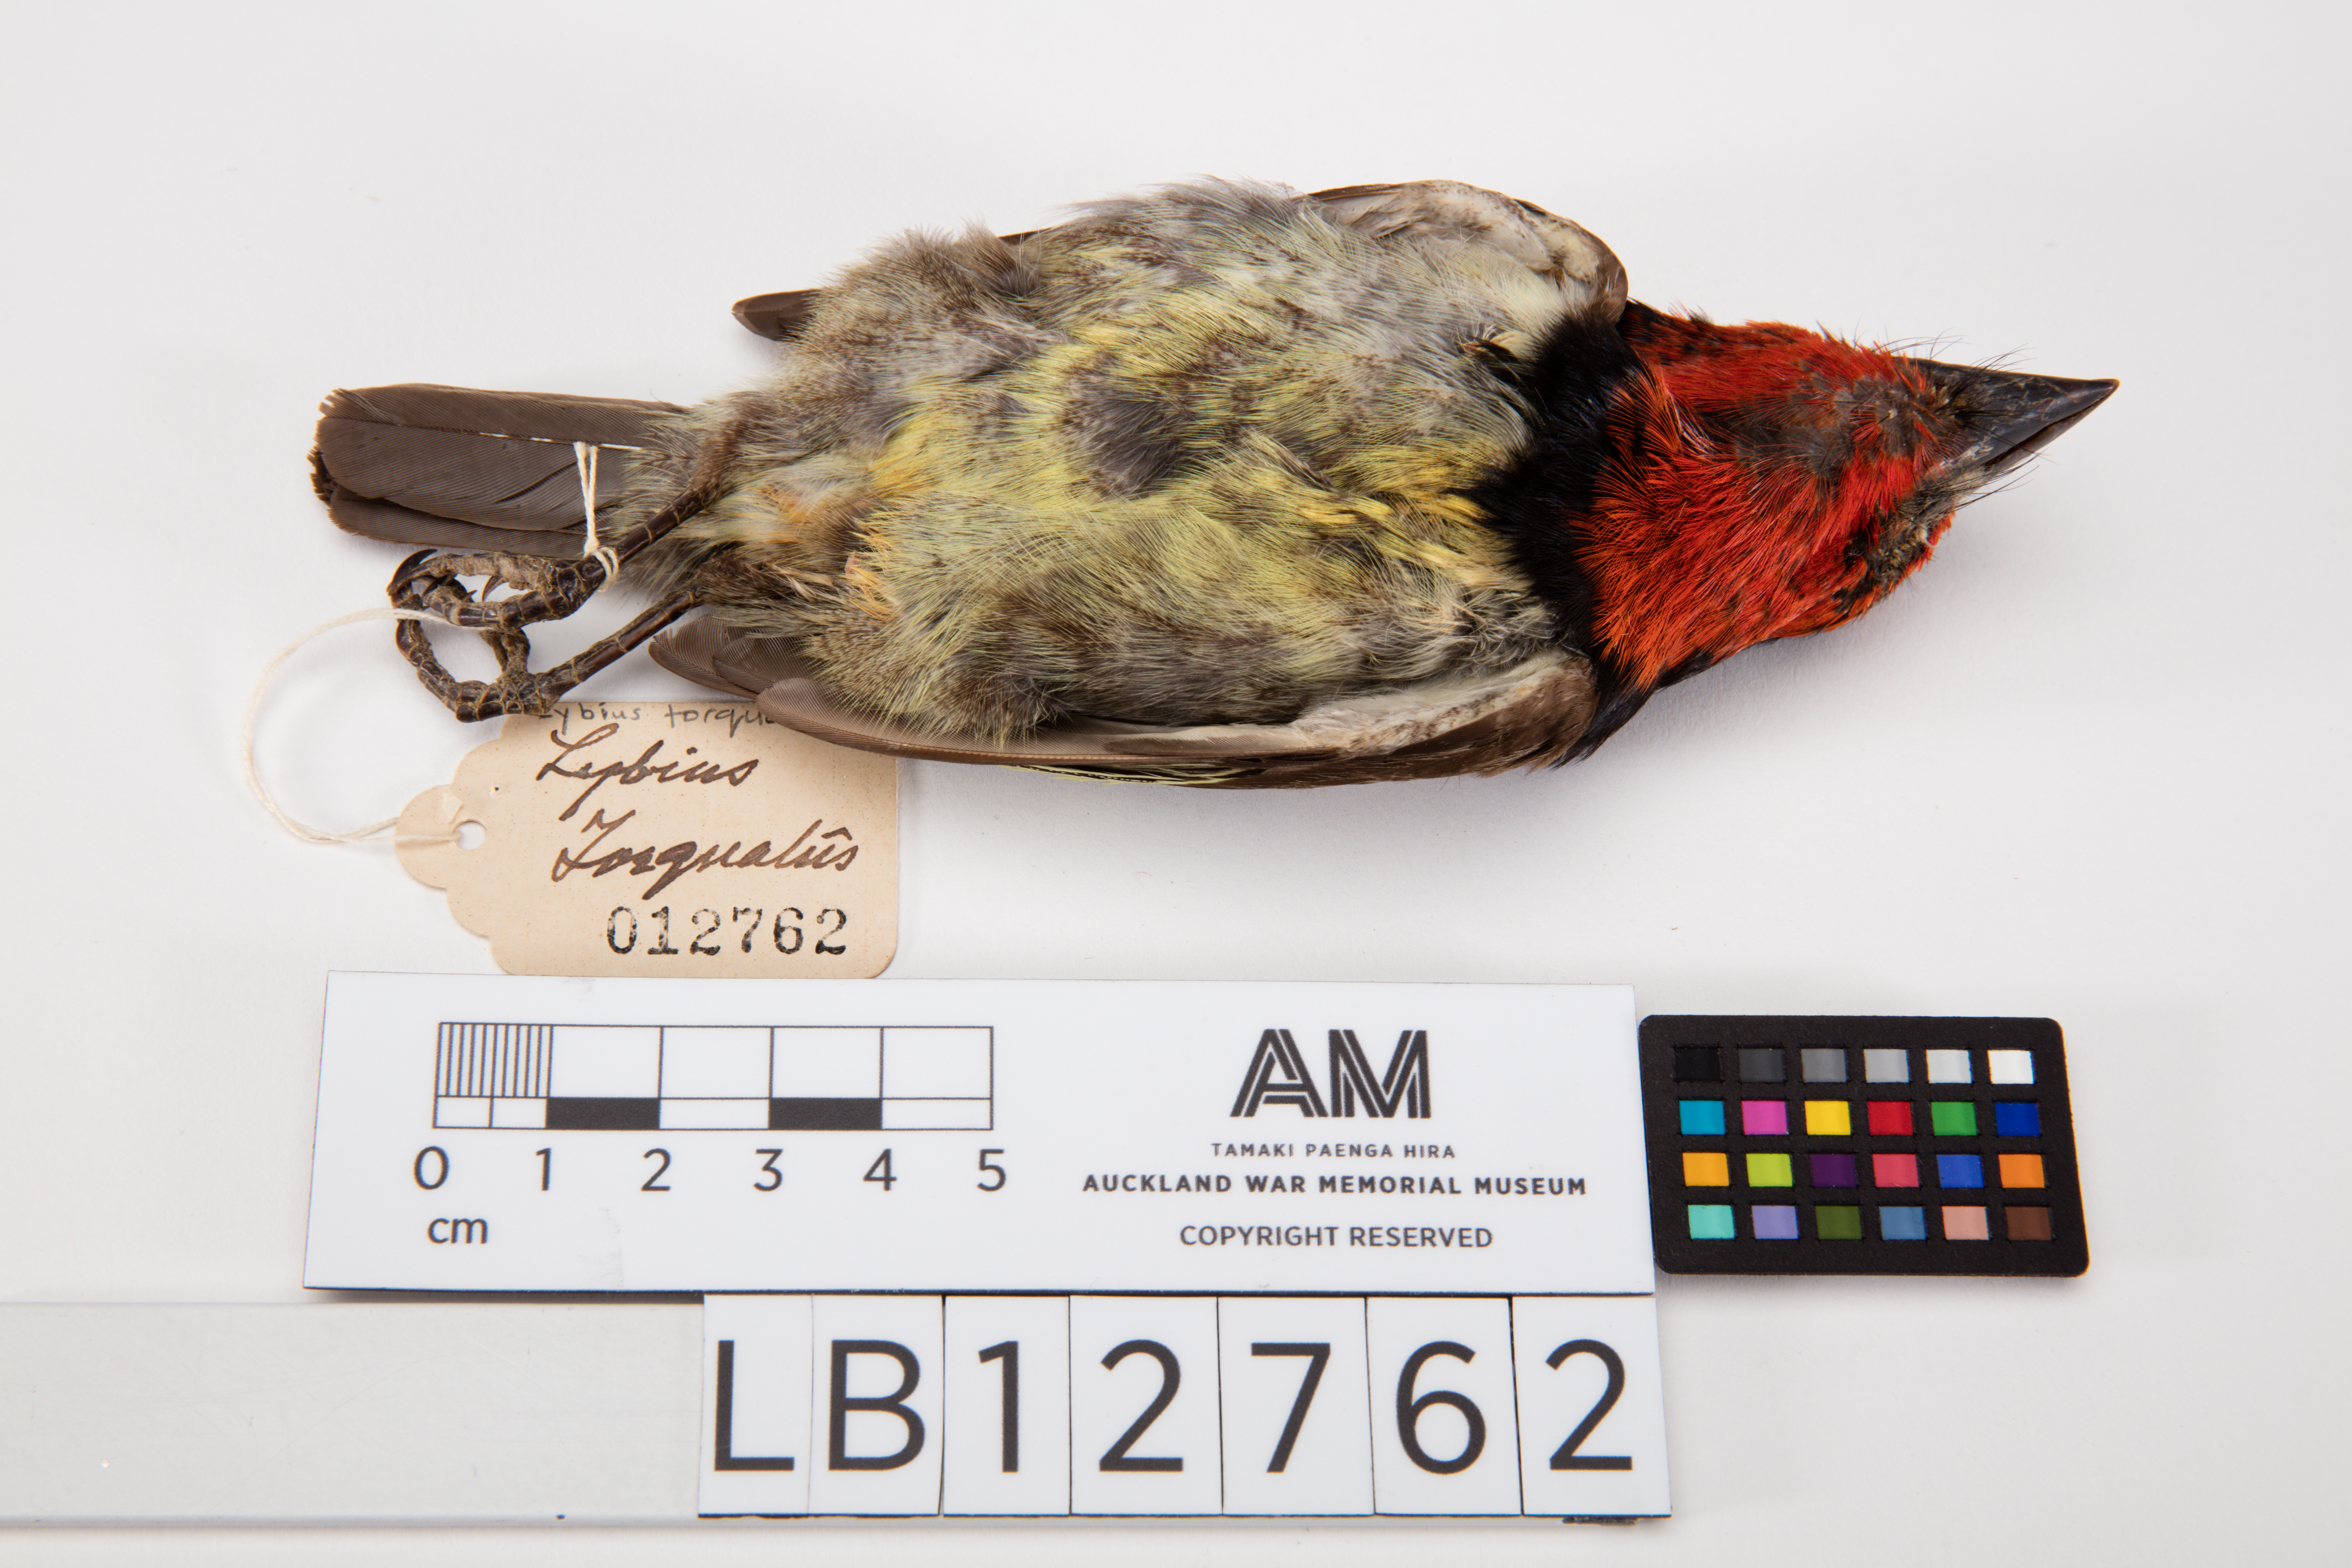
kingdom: Animalia
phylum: Chordata
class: Aves
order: Piciformes
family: Lybiidae
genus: Lybius
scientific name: Lybius torquatus
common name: Black-collared barbet
